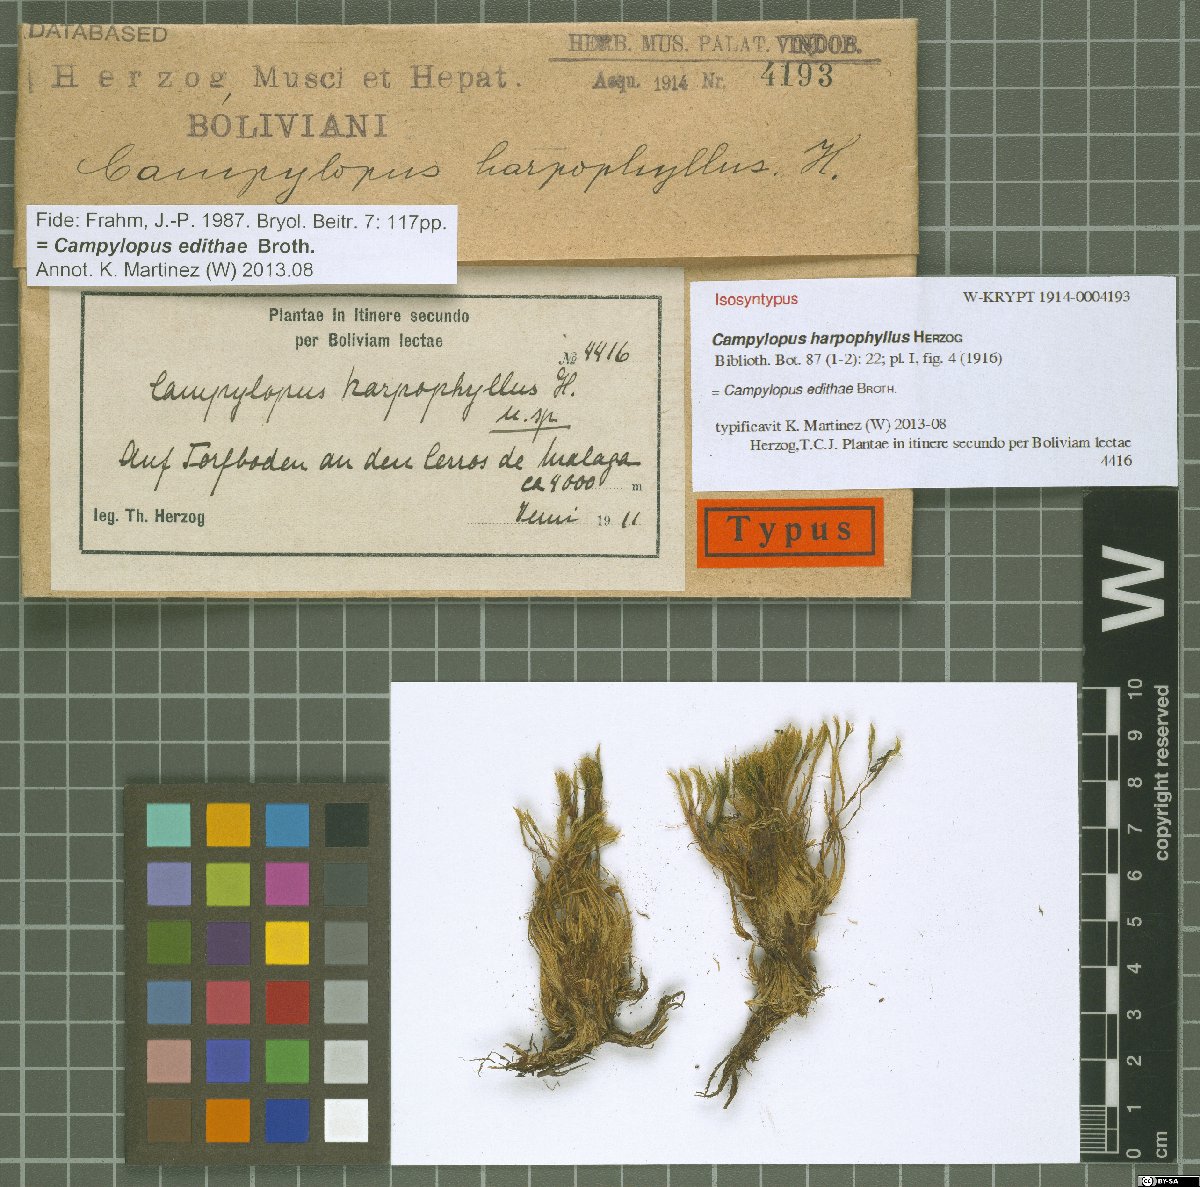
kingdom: Plantae
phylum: Bryophyta
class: Bryopsida
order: Dicranales
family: Leucobryaceae
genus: Campylopus
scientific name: Campylopus edithae
